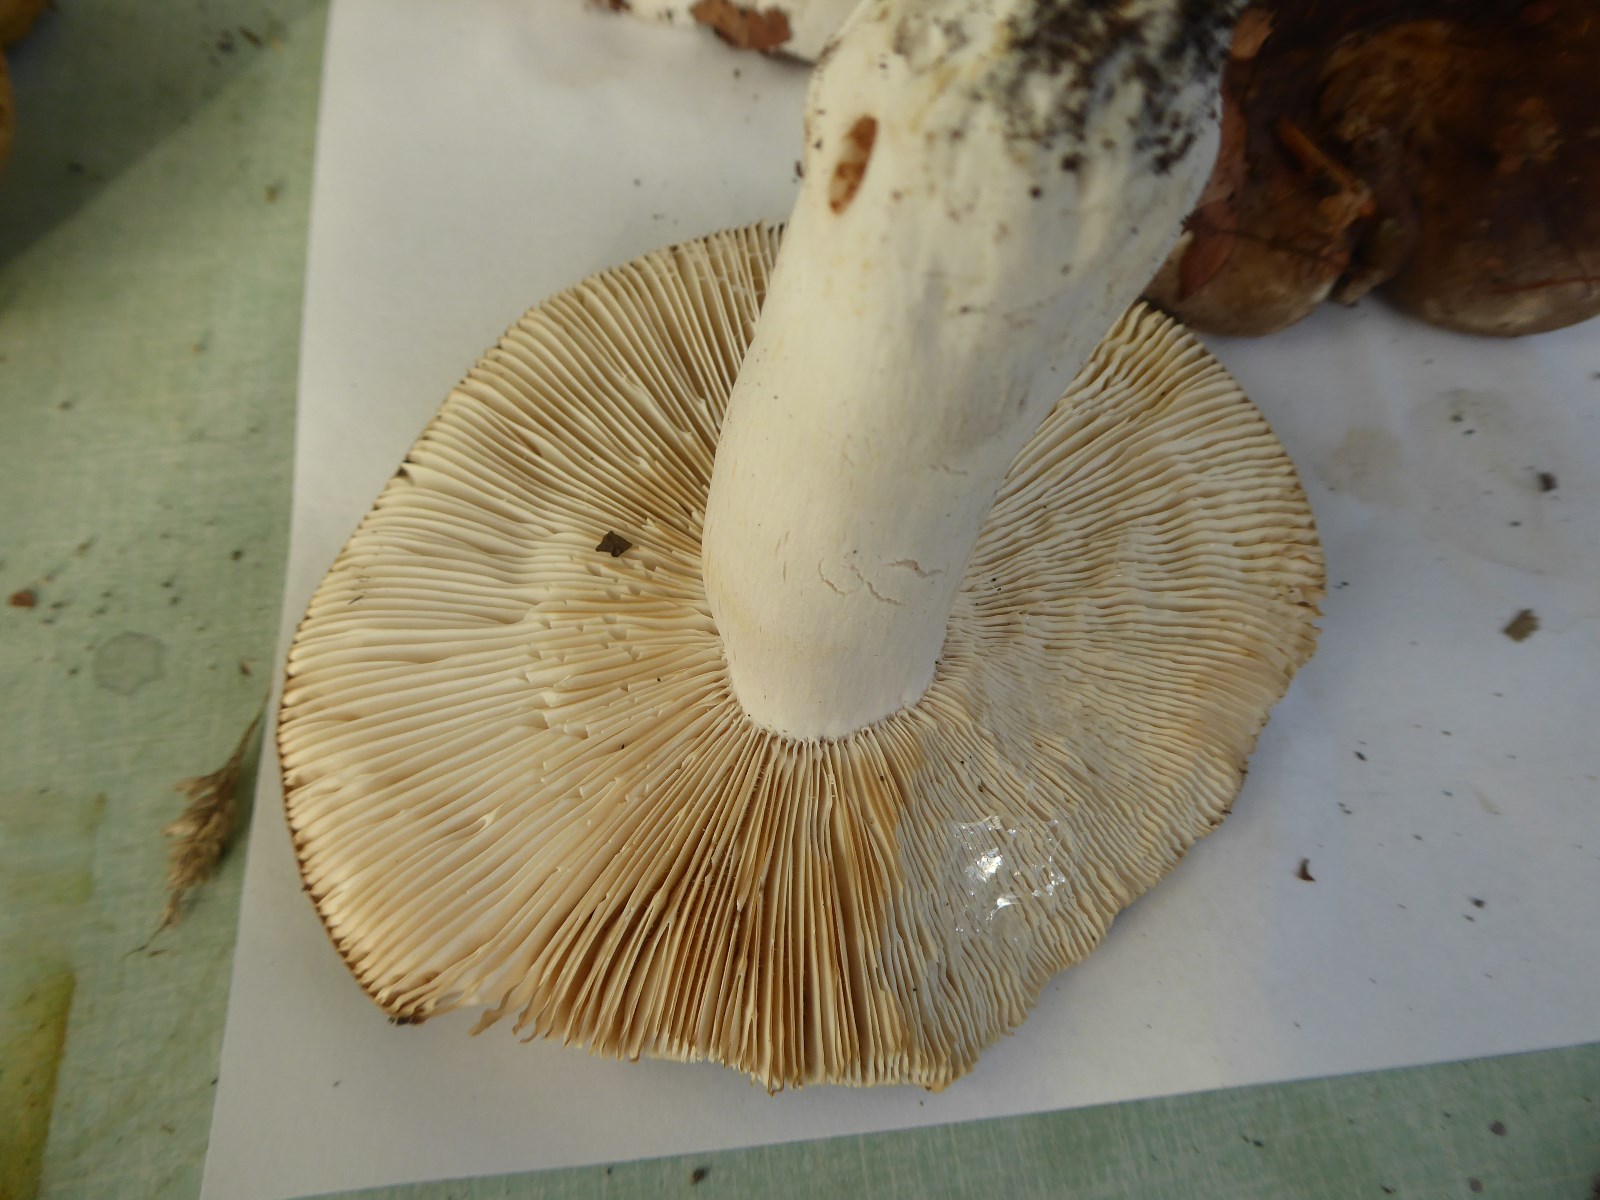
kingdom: Fungi
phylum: Basidiomycota
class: Agaricomycetes
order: Russulales
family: Russulaceae
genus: Russula
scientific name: Russula parazurea
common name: blågrå skørhat
